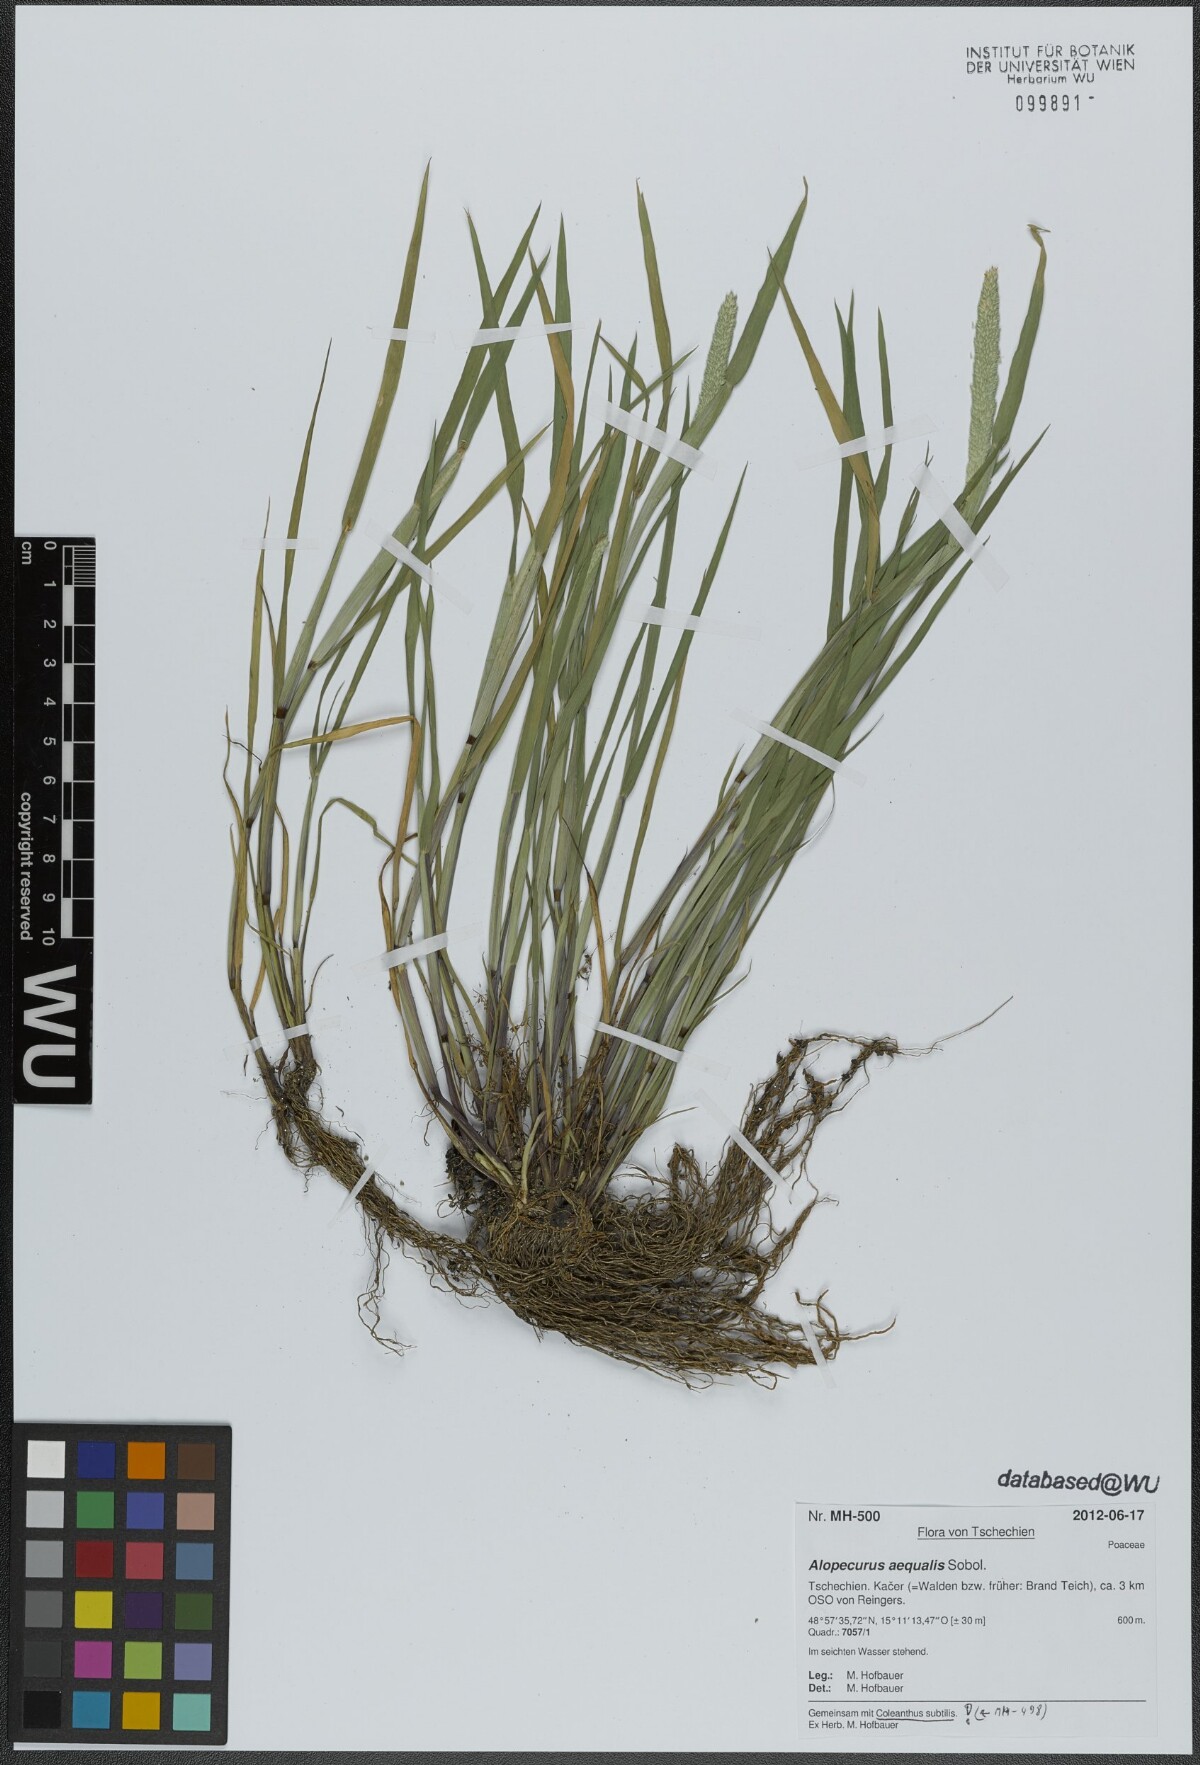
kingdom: Plantae
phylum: Tracheophyta
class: Liliopsida
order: Poales
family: Poaceae
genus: Alopecurus
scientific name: Alopecurus aequalis
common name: Orange foxtail
